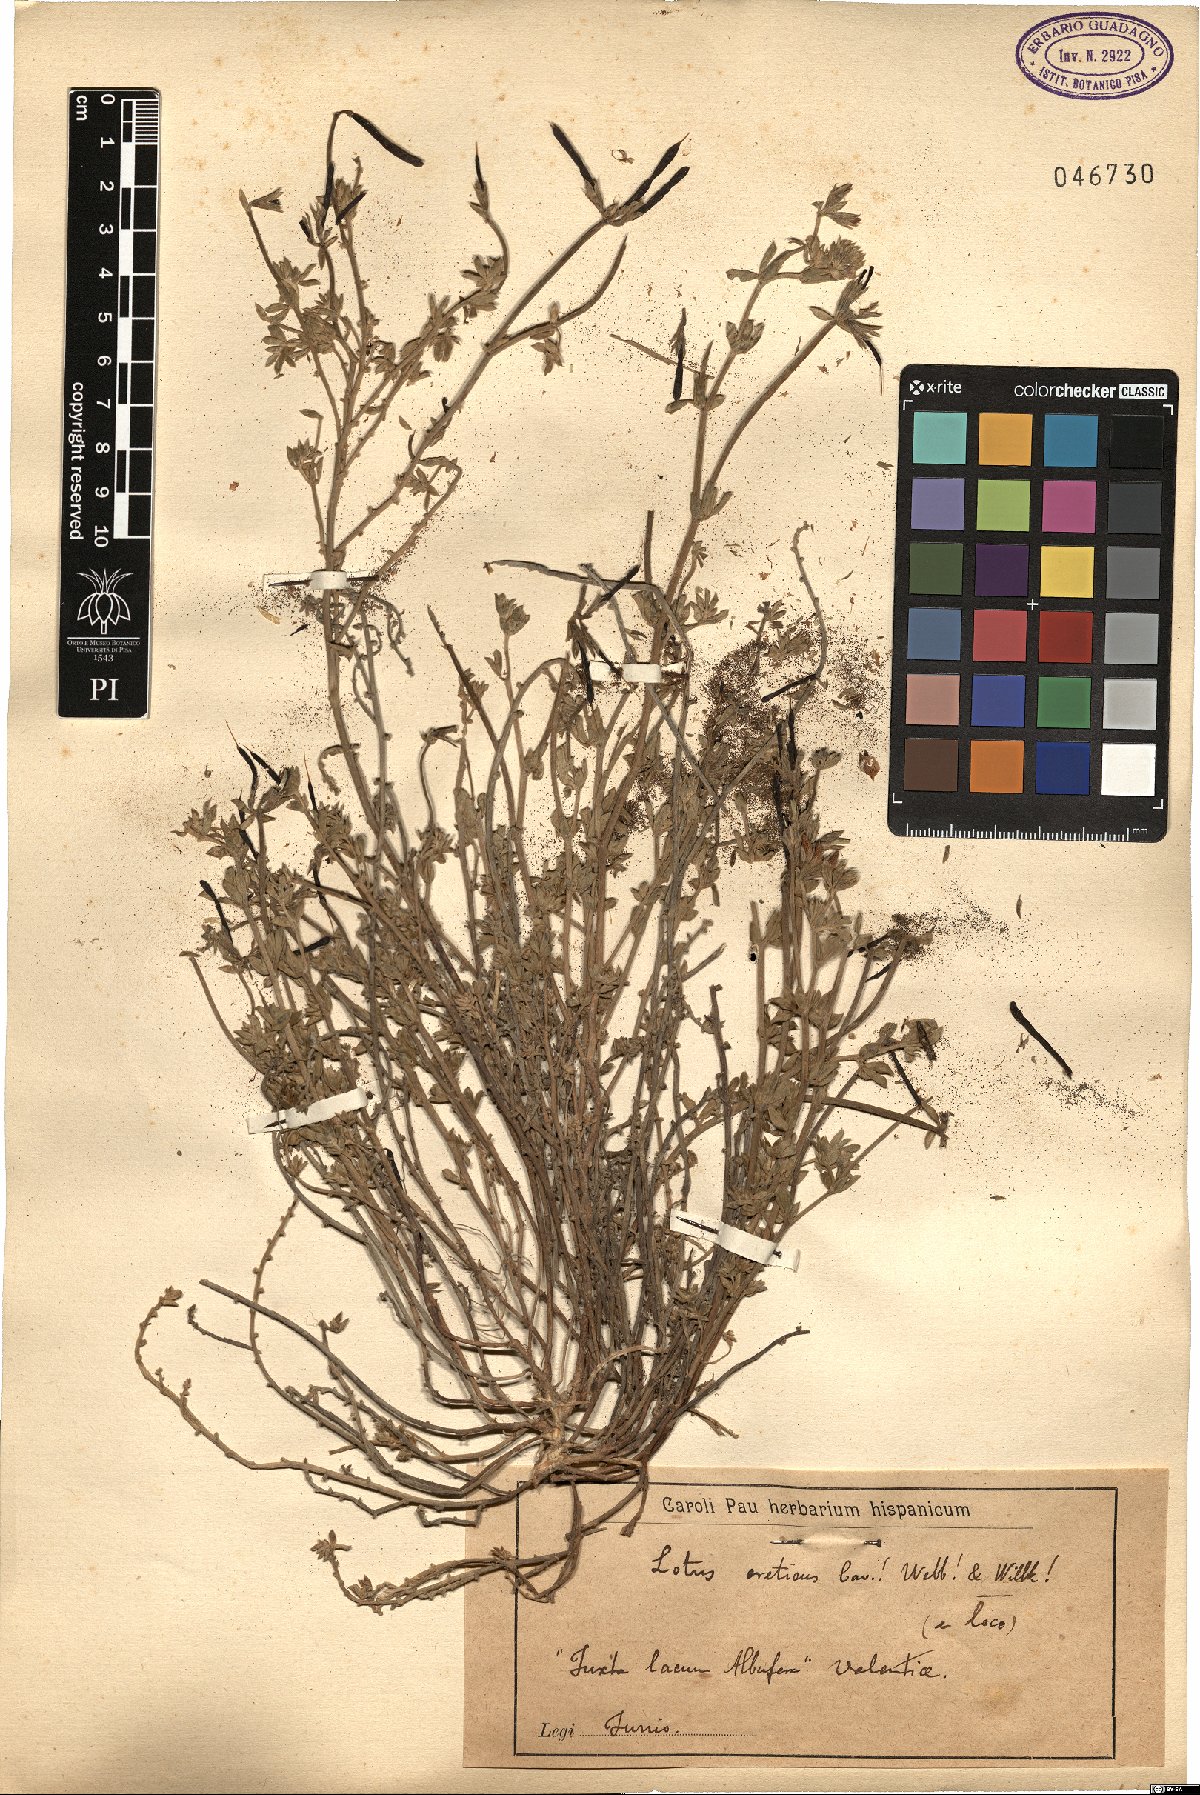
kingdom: Plantae
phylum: Tracheophyta
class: Magnoliopsida
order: Fabales
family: Fabaceae
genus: Lotus
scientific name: Lotus creticus
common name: Cretan bird's-foot trefoil
